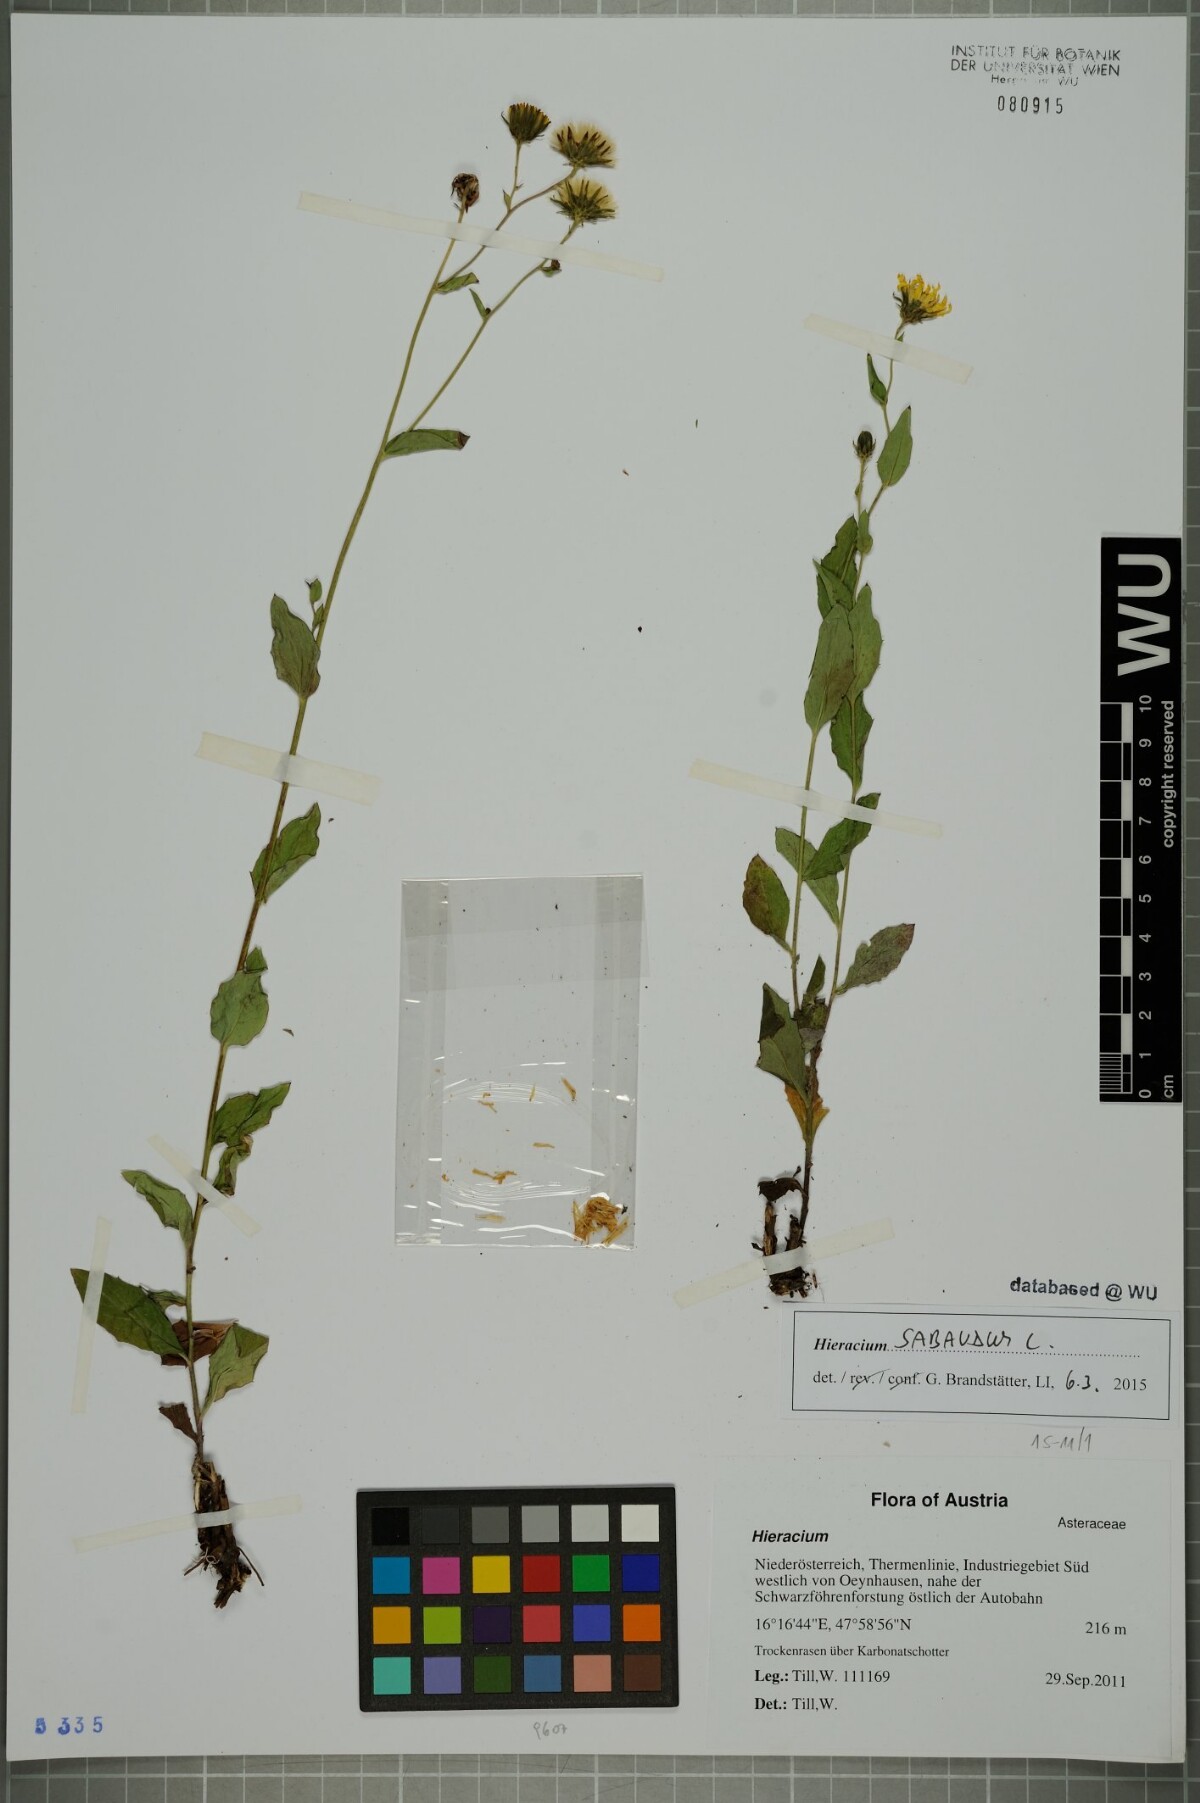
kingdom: Plantae
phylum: Tracheophyta
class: Magnoliopsida
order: Asterales
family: Asteraceae
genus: Hieracium
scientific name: Hieracium sabaudum
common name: New england hawkweed
